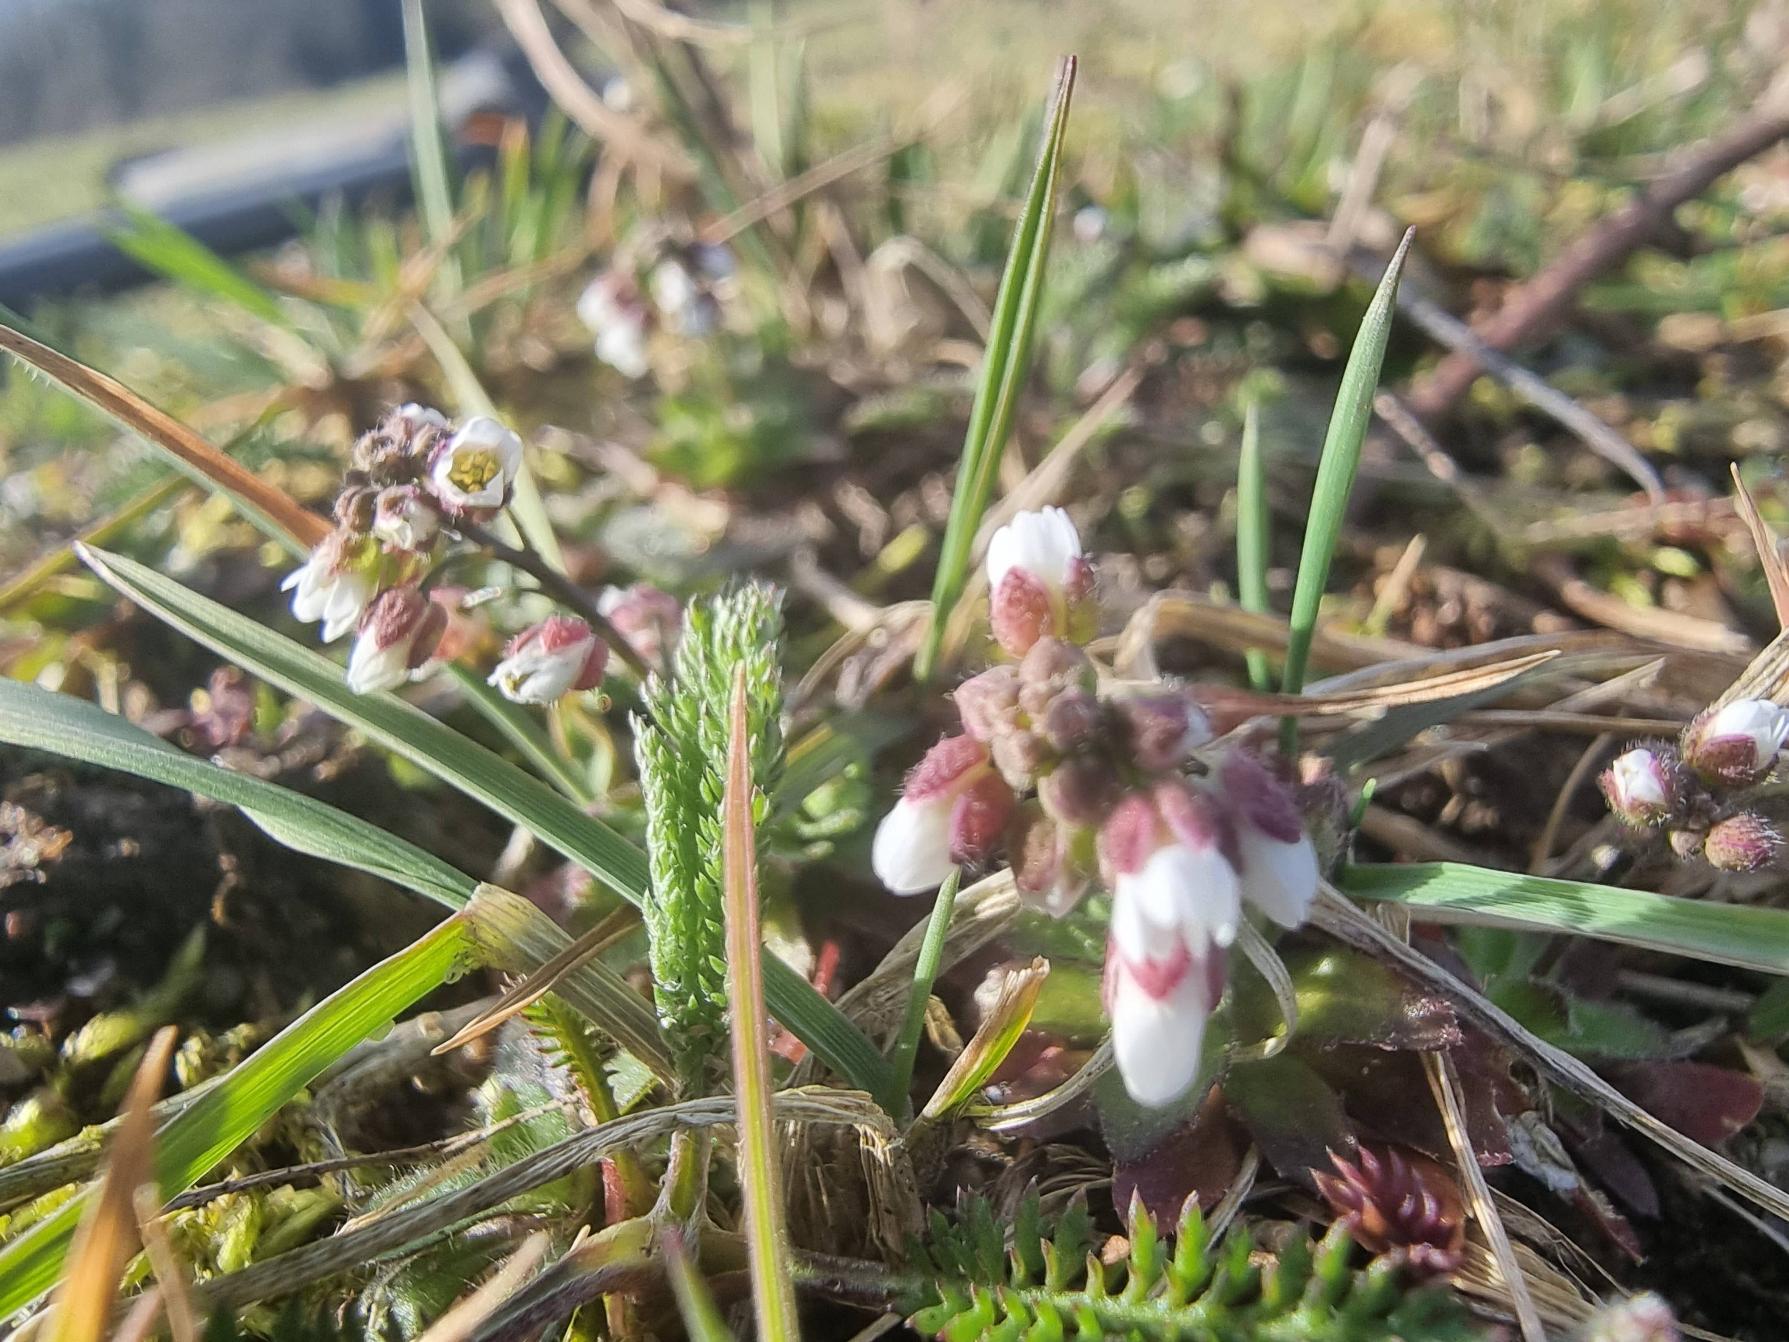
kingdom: Plantae
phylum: Tracheophyta
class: Magnoliopsida
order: Brassicales
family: Brassicaceae
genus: Draba
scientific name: Draba verna
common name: Vår-gæslingeblomst
